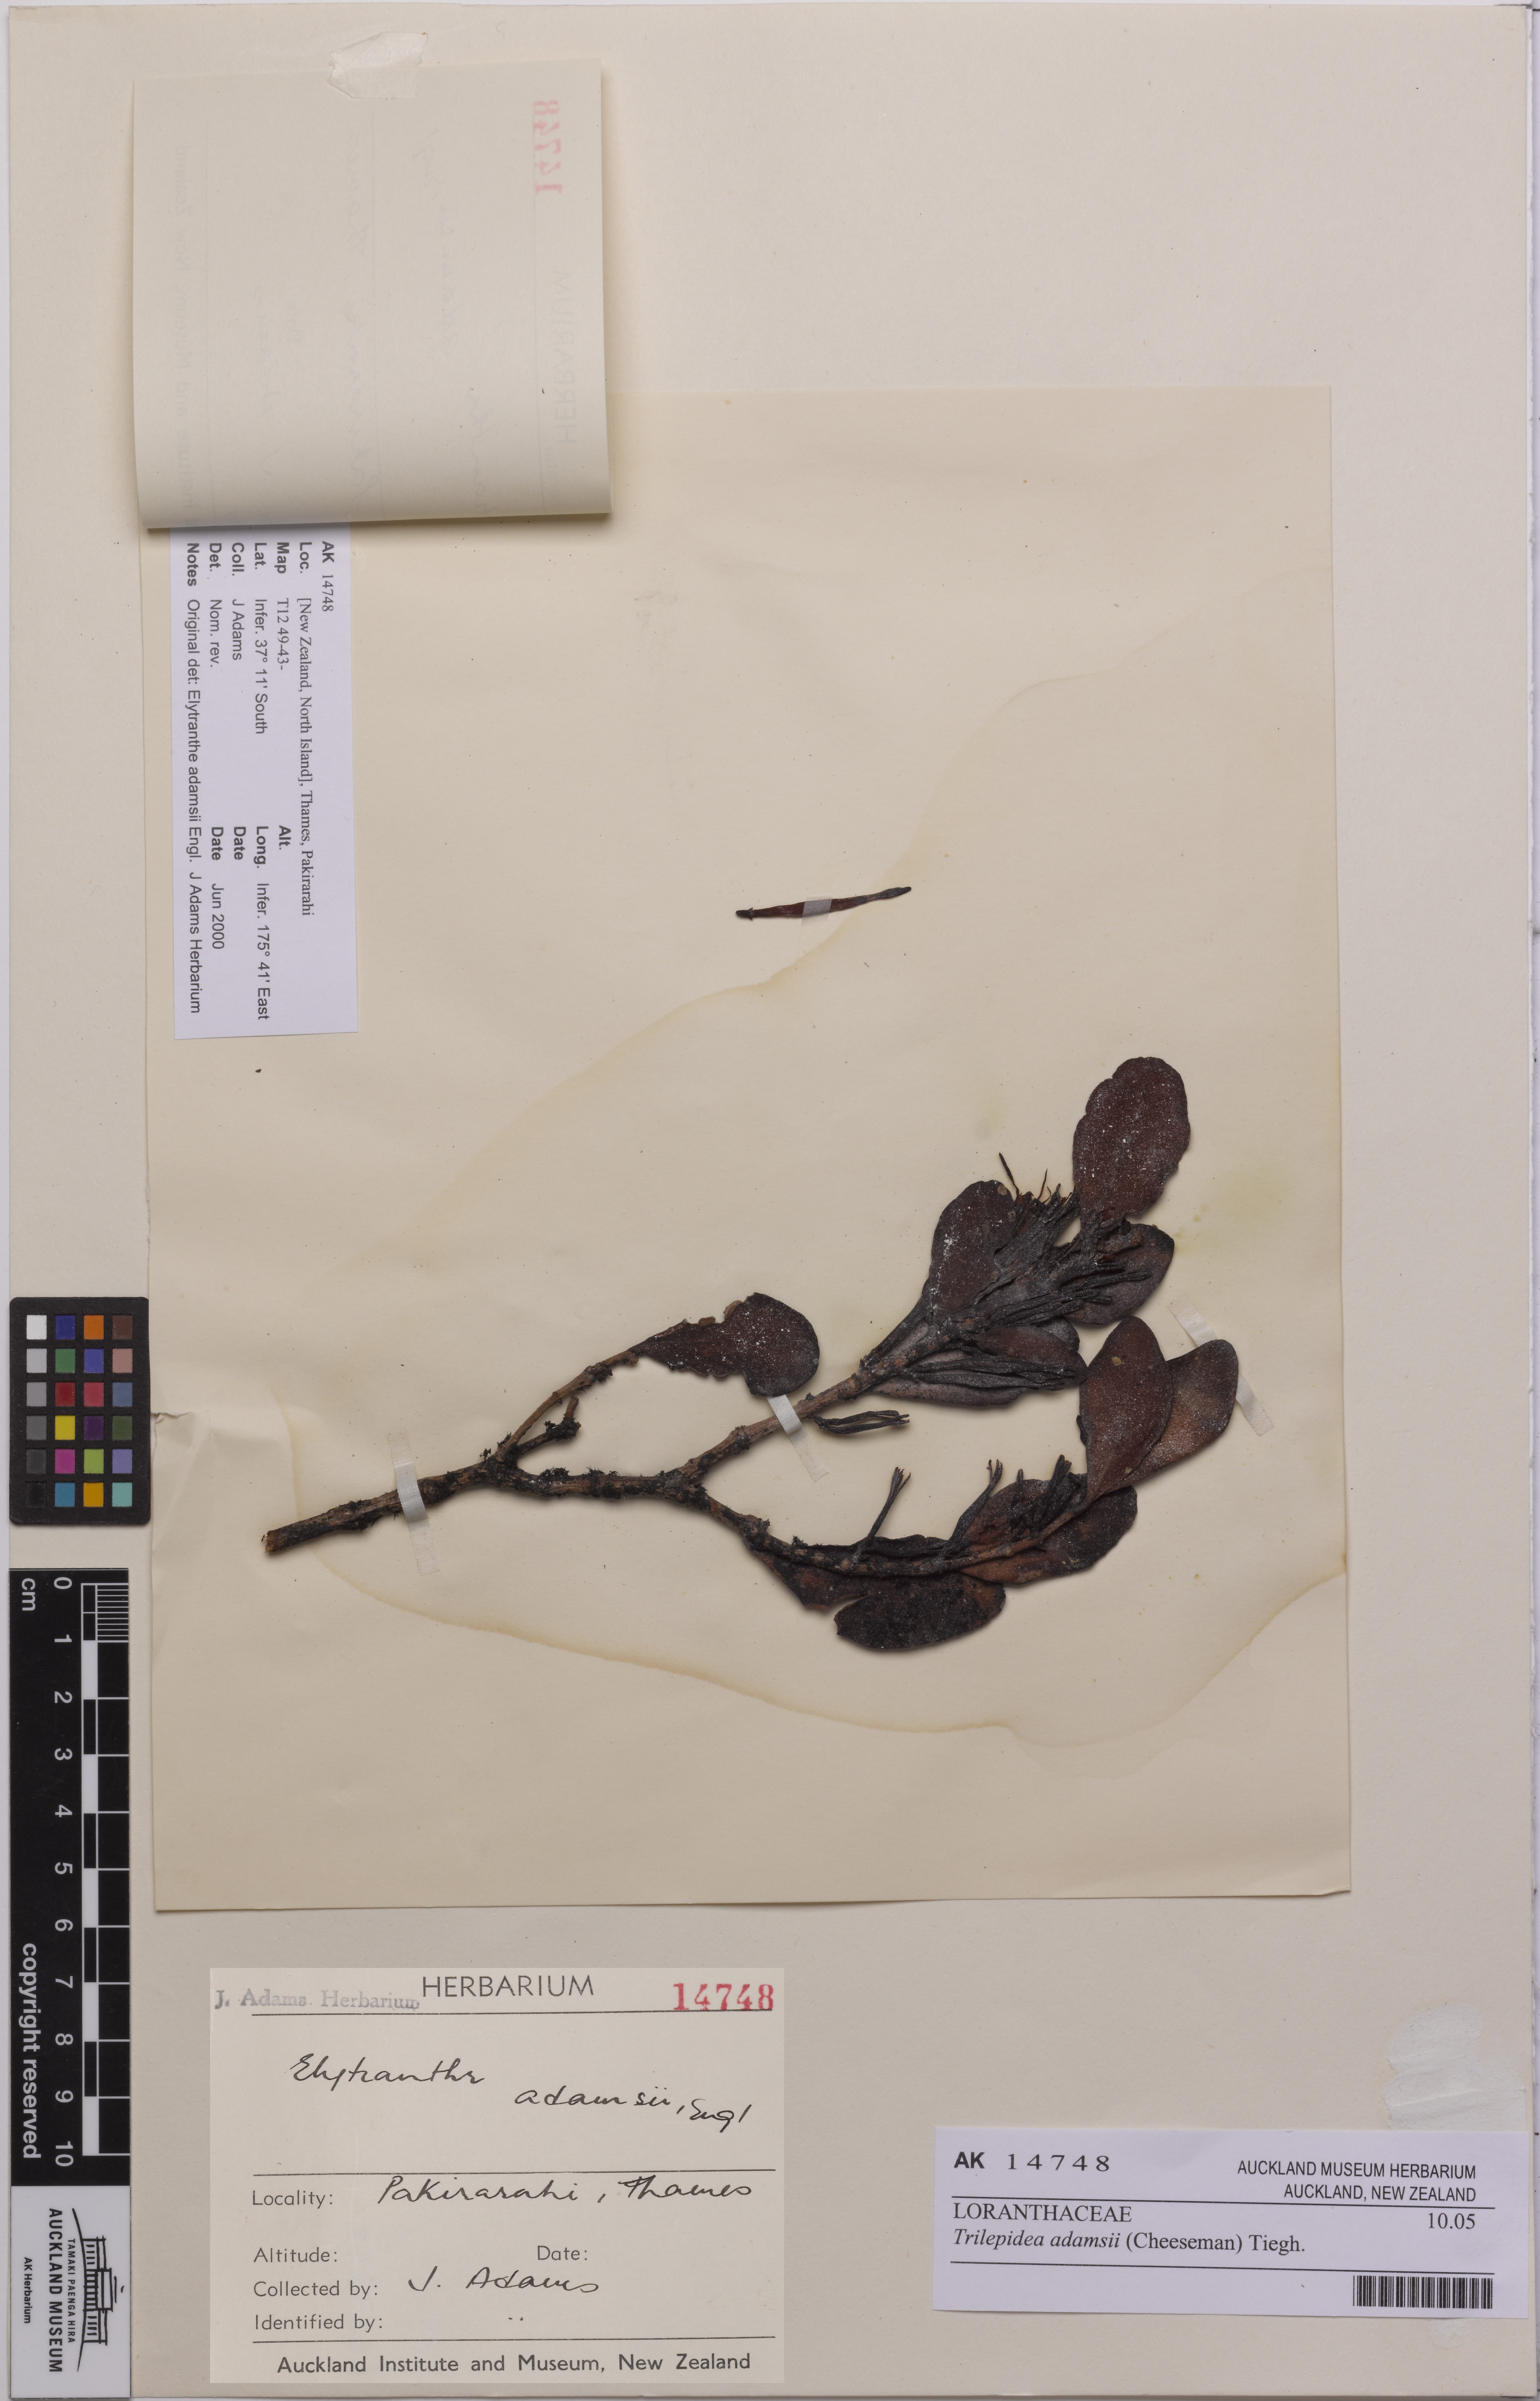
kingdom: Plantae
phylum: Tracheophyta
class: Magnoliopsida
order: Santalales
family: Loranthaceae
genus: Trilepidea
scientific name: Trilepidea adamsii
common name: Adams mistletoe
